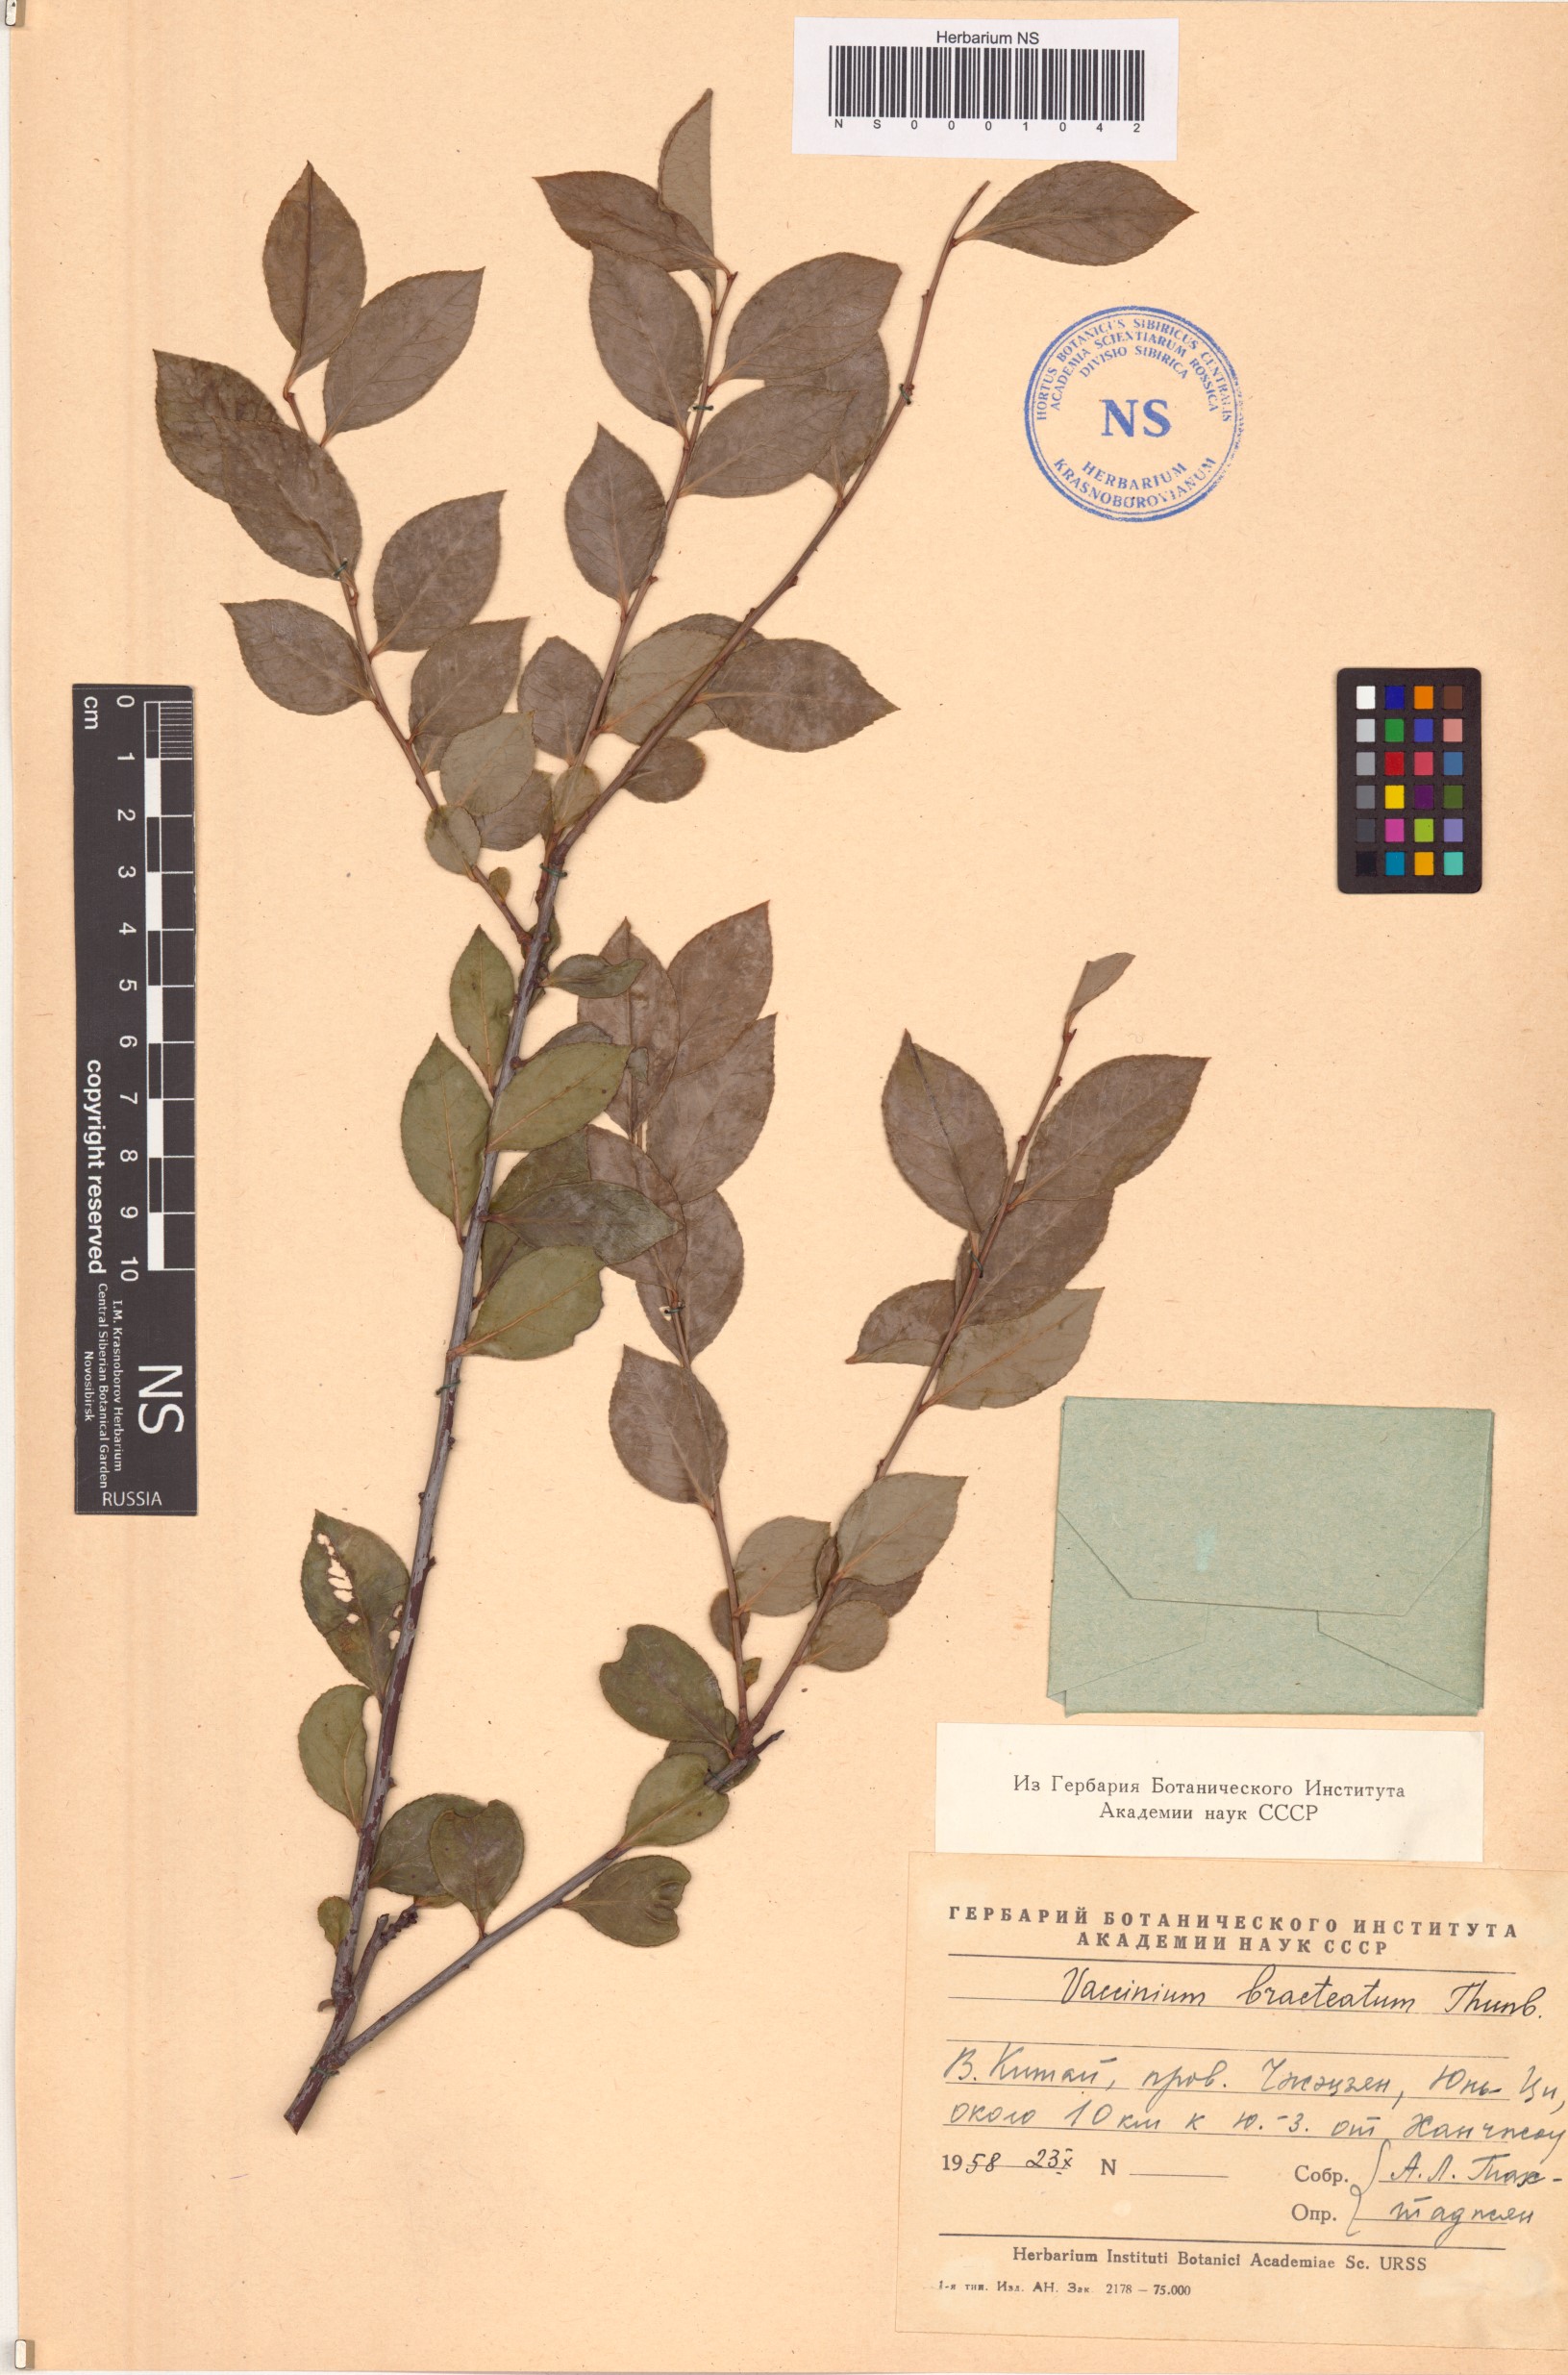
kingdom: Plantae
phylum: Tracheophyta
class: Magnoliopsida
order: Ericales
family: Ericaceae
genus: Vaccinium
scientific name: Vaccinium bracteatum
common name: Sea bilberry
